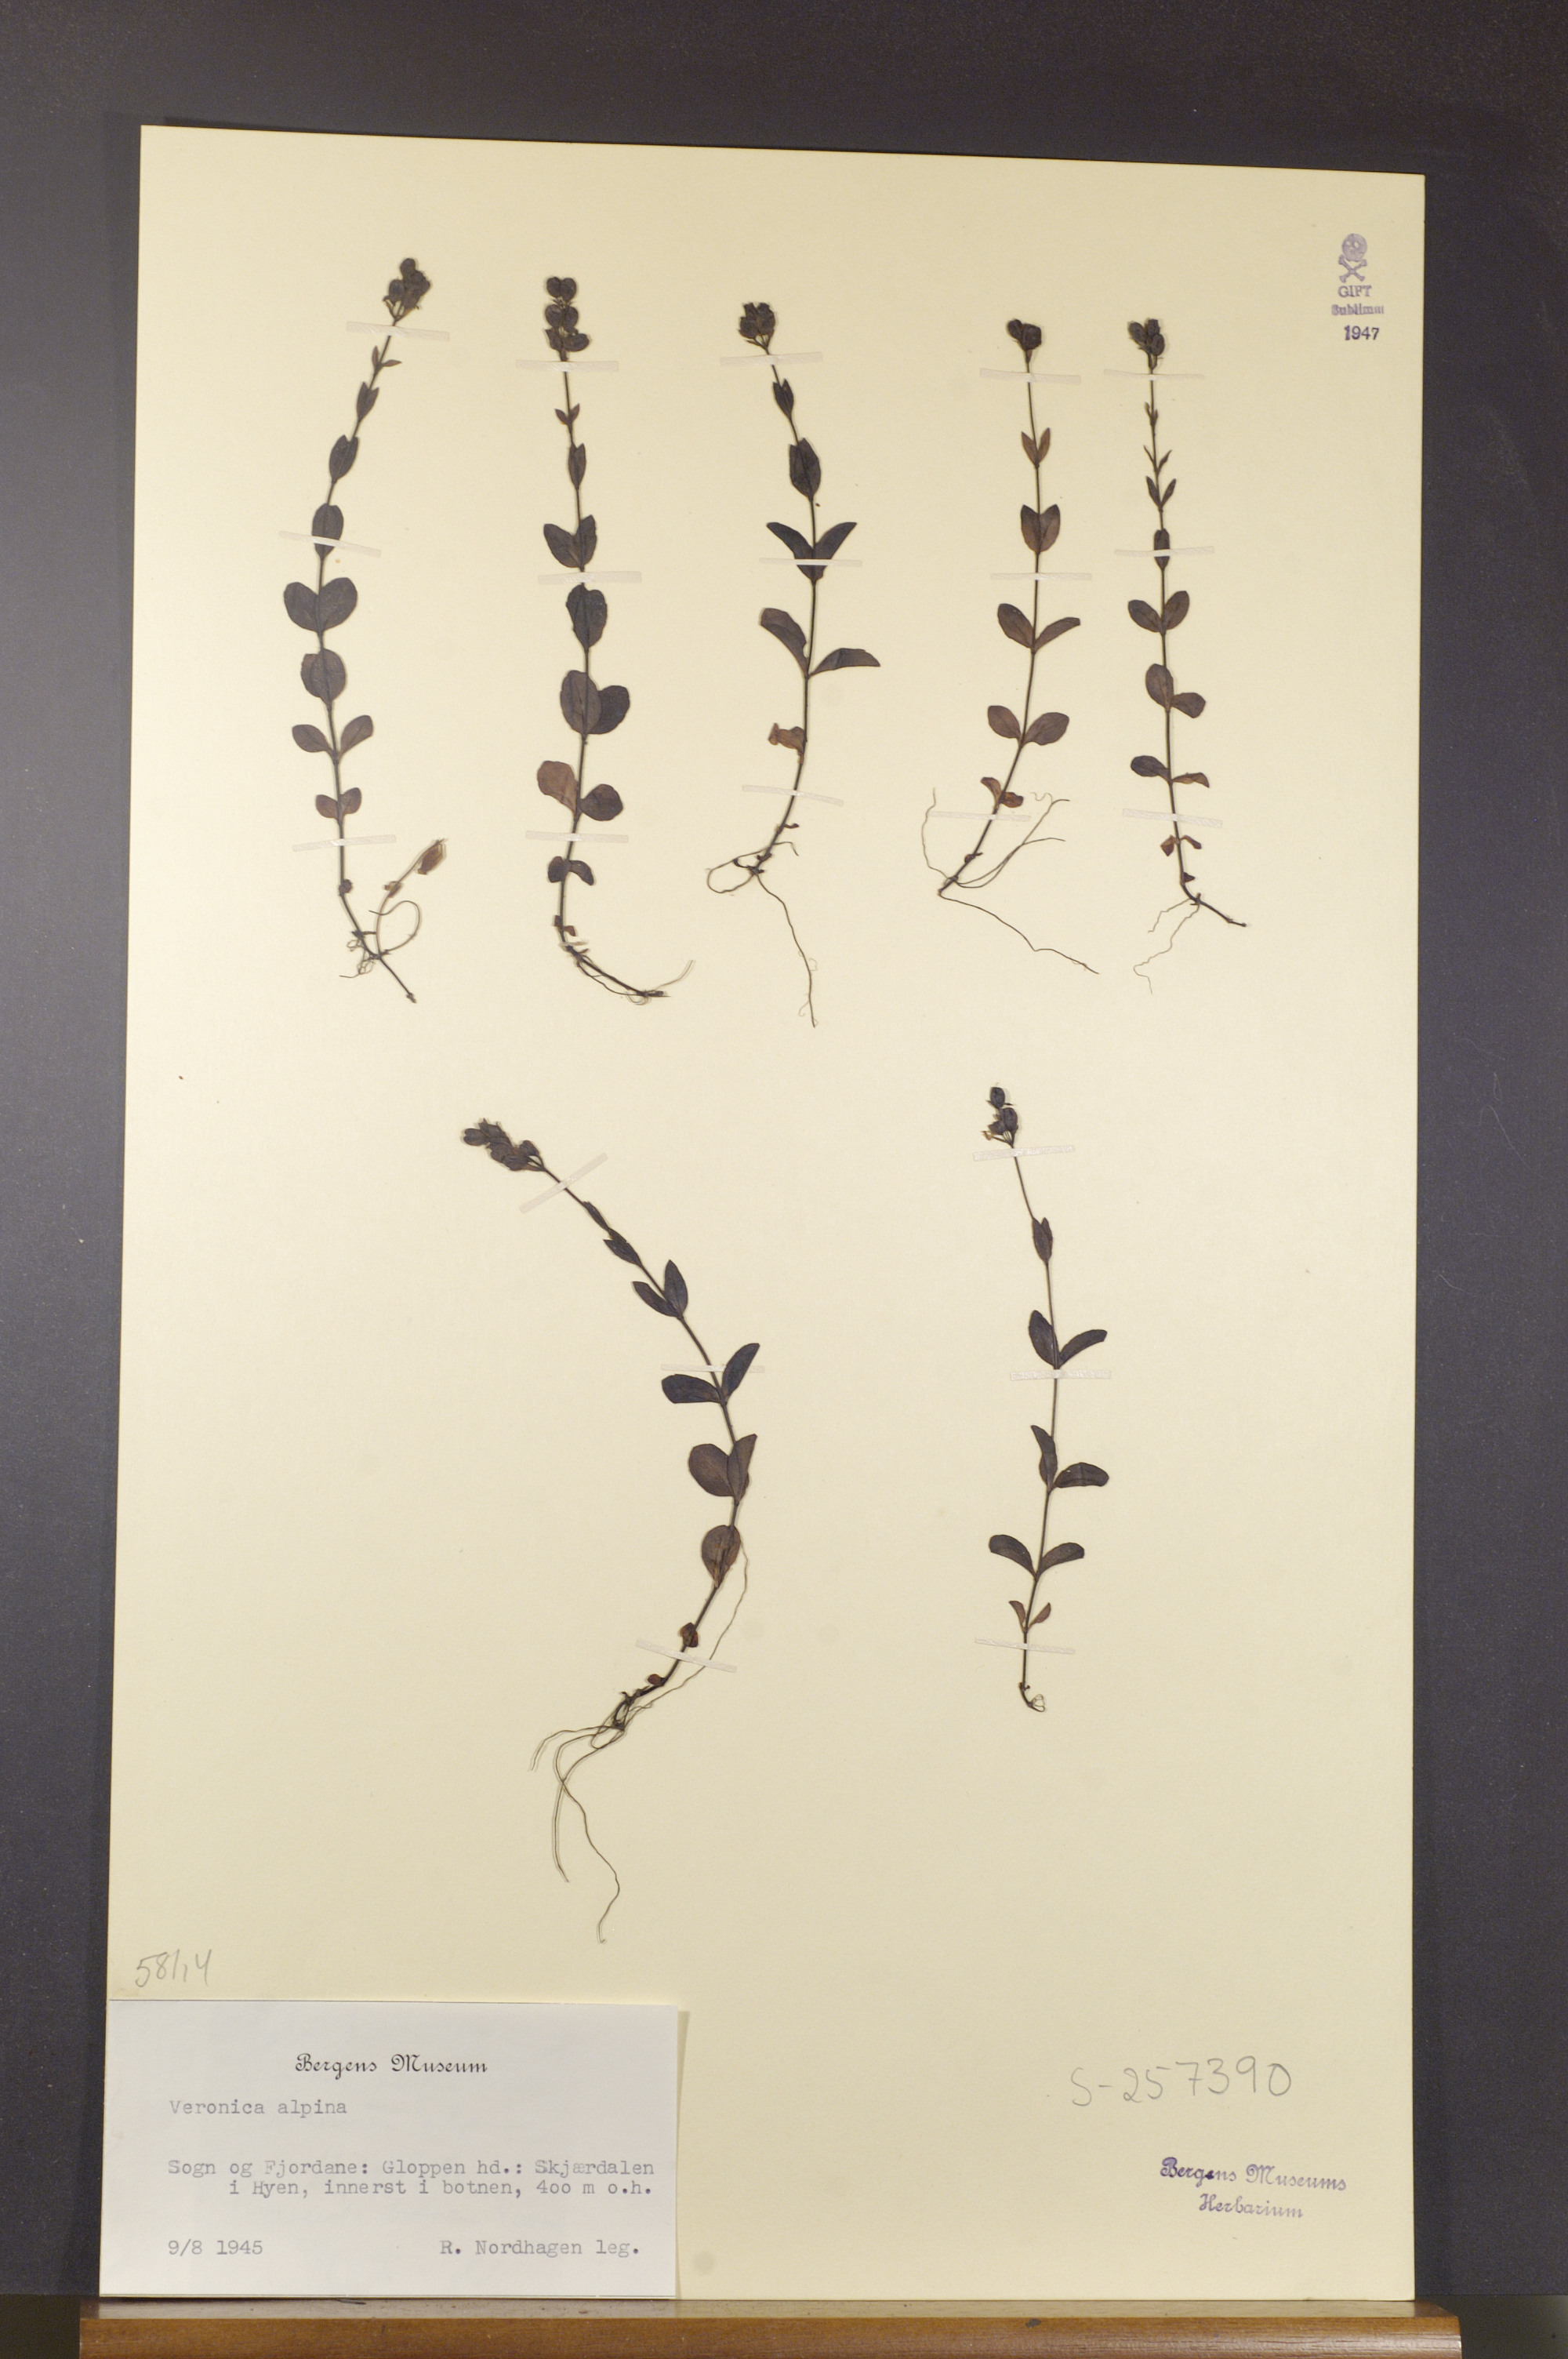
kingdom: Plantae
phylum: Tracheophyta
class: Magnoliopsida
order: Lamiales
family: Plantaginaceae
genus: Veronica
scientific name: Veronica alpina
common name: Alpine speedwell
